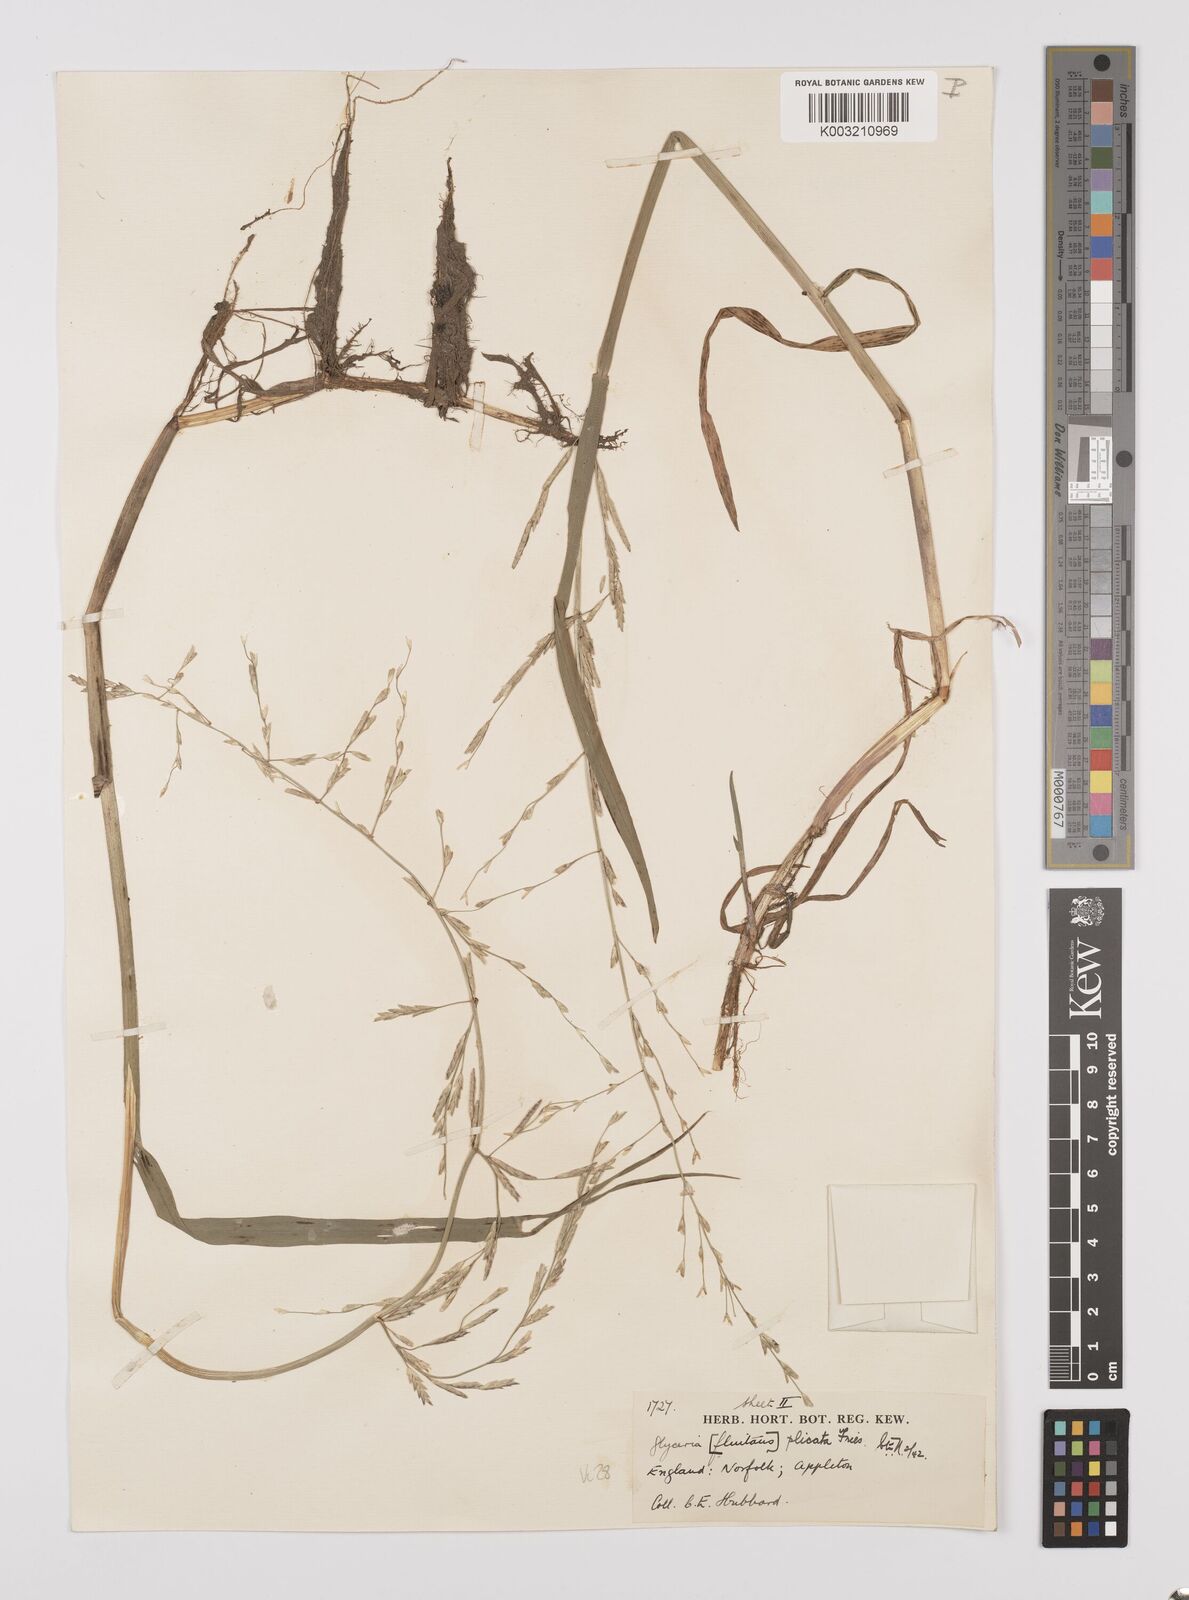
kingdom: Plantae
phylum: Tracheophyta
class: Liliopsida
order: Poales
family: Poaceae
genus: Glyceria
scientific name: Glyceria notata
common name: Plicate sweet-grass
